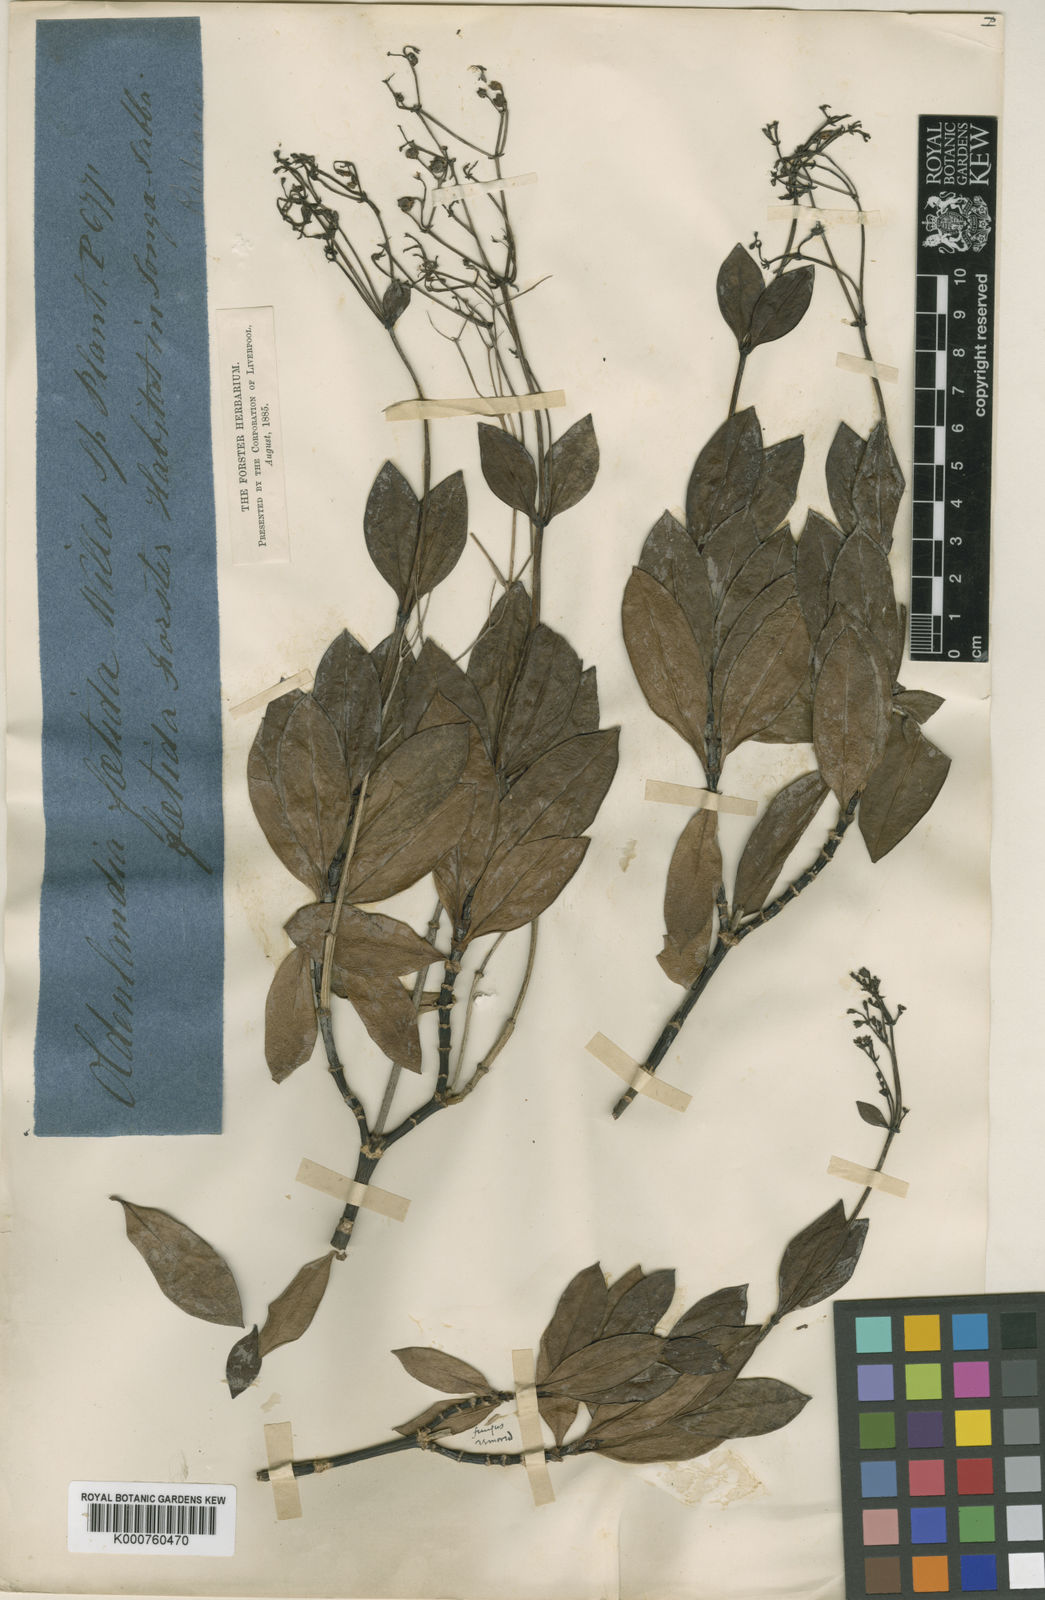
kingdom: Plantae
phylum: Tracheophyta
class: Magnoliopsida
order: Gentianales
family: Rubiaceae
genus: Leptopetalum
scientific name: Leptopetalum foetidum
